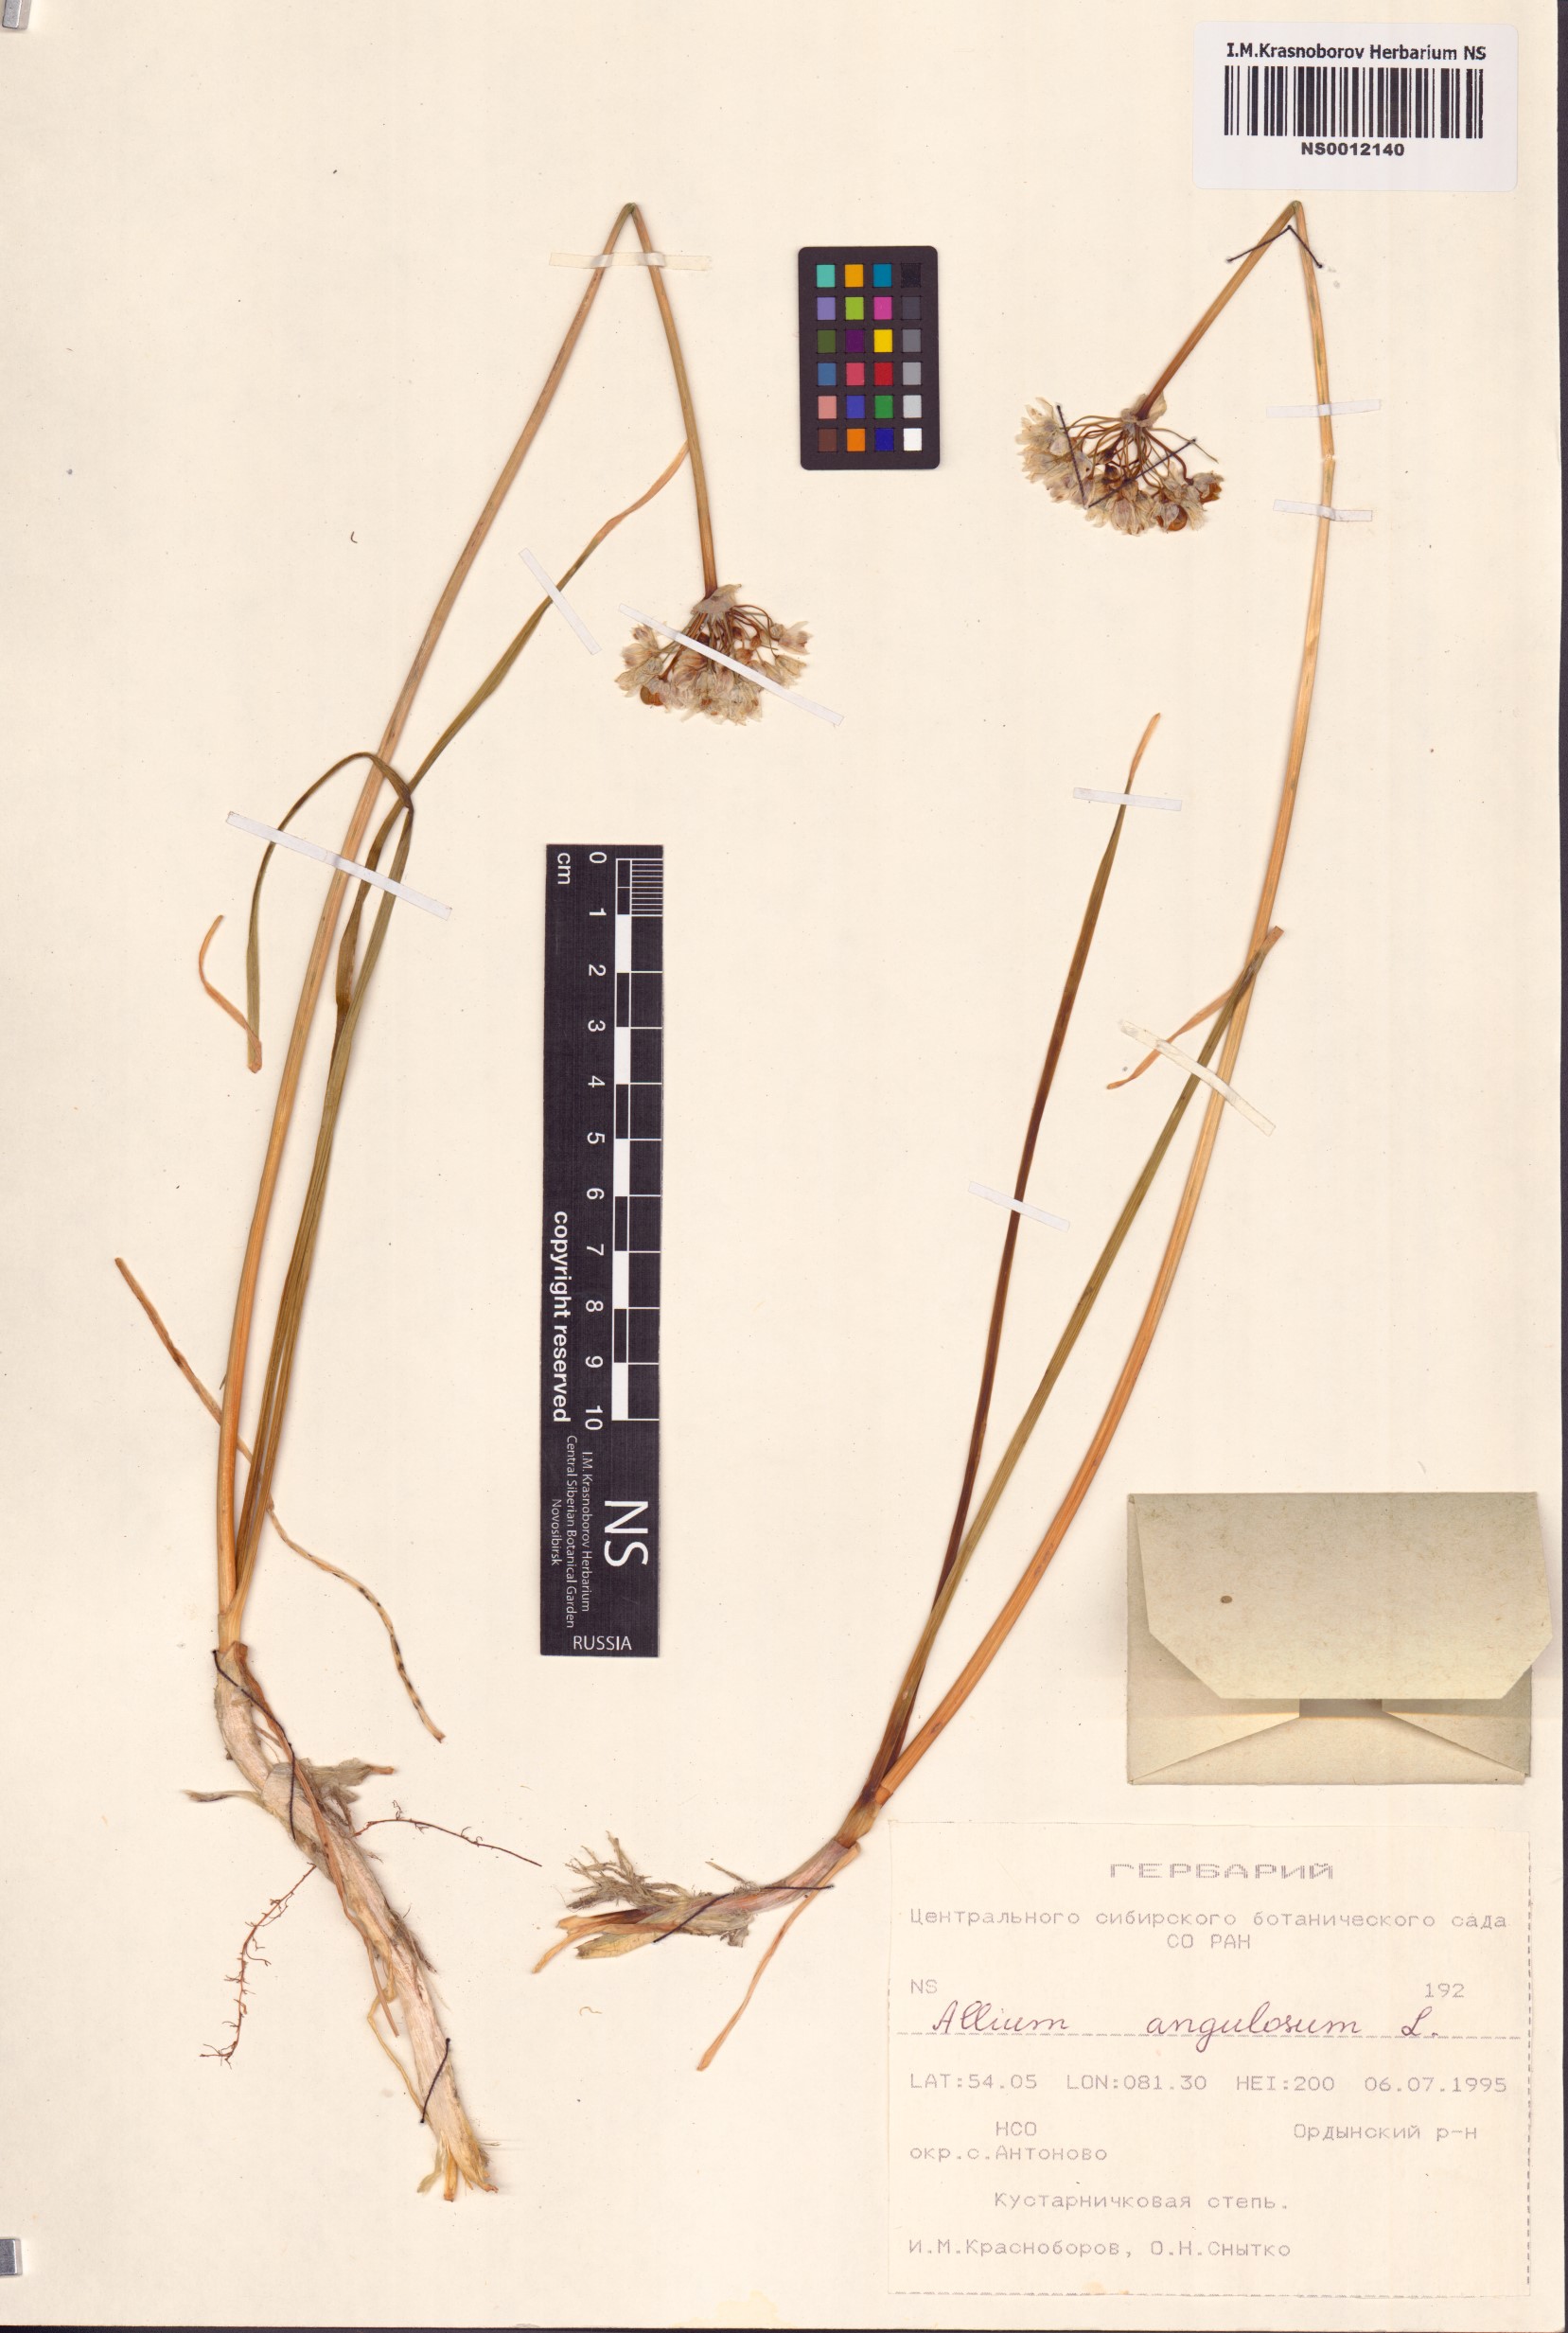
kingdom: Plantae
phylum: Tracheophyta
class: Liliopsida
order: Asparagales
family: Amaryllidaceae
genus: Allium
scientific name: Allium angulosum
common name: Mouse garlic
